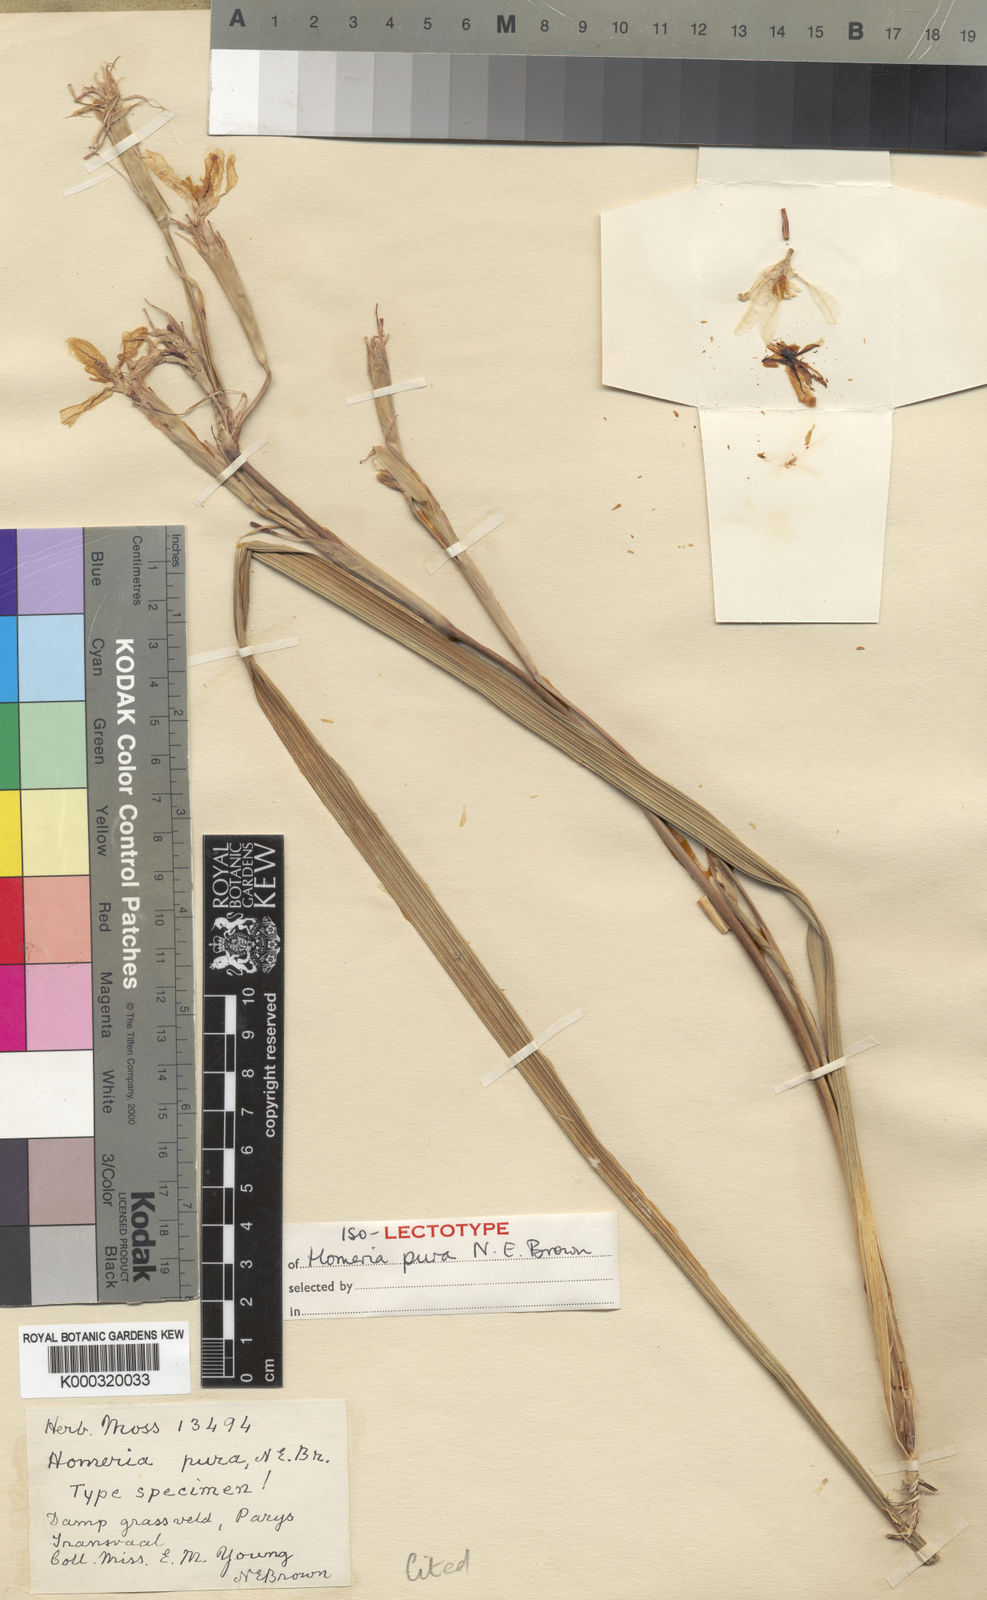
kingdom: Plantae
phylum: Tracheophyta
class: Liliopsida
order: Asparagales
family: Iridaceae
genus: Moraea
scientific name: Moraea pallida
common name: Yellow tulp
